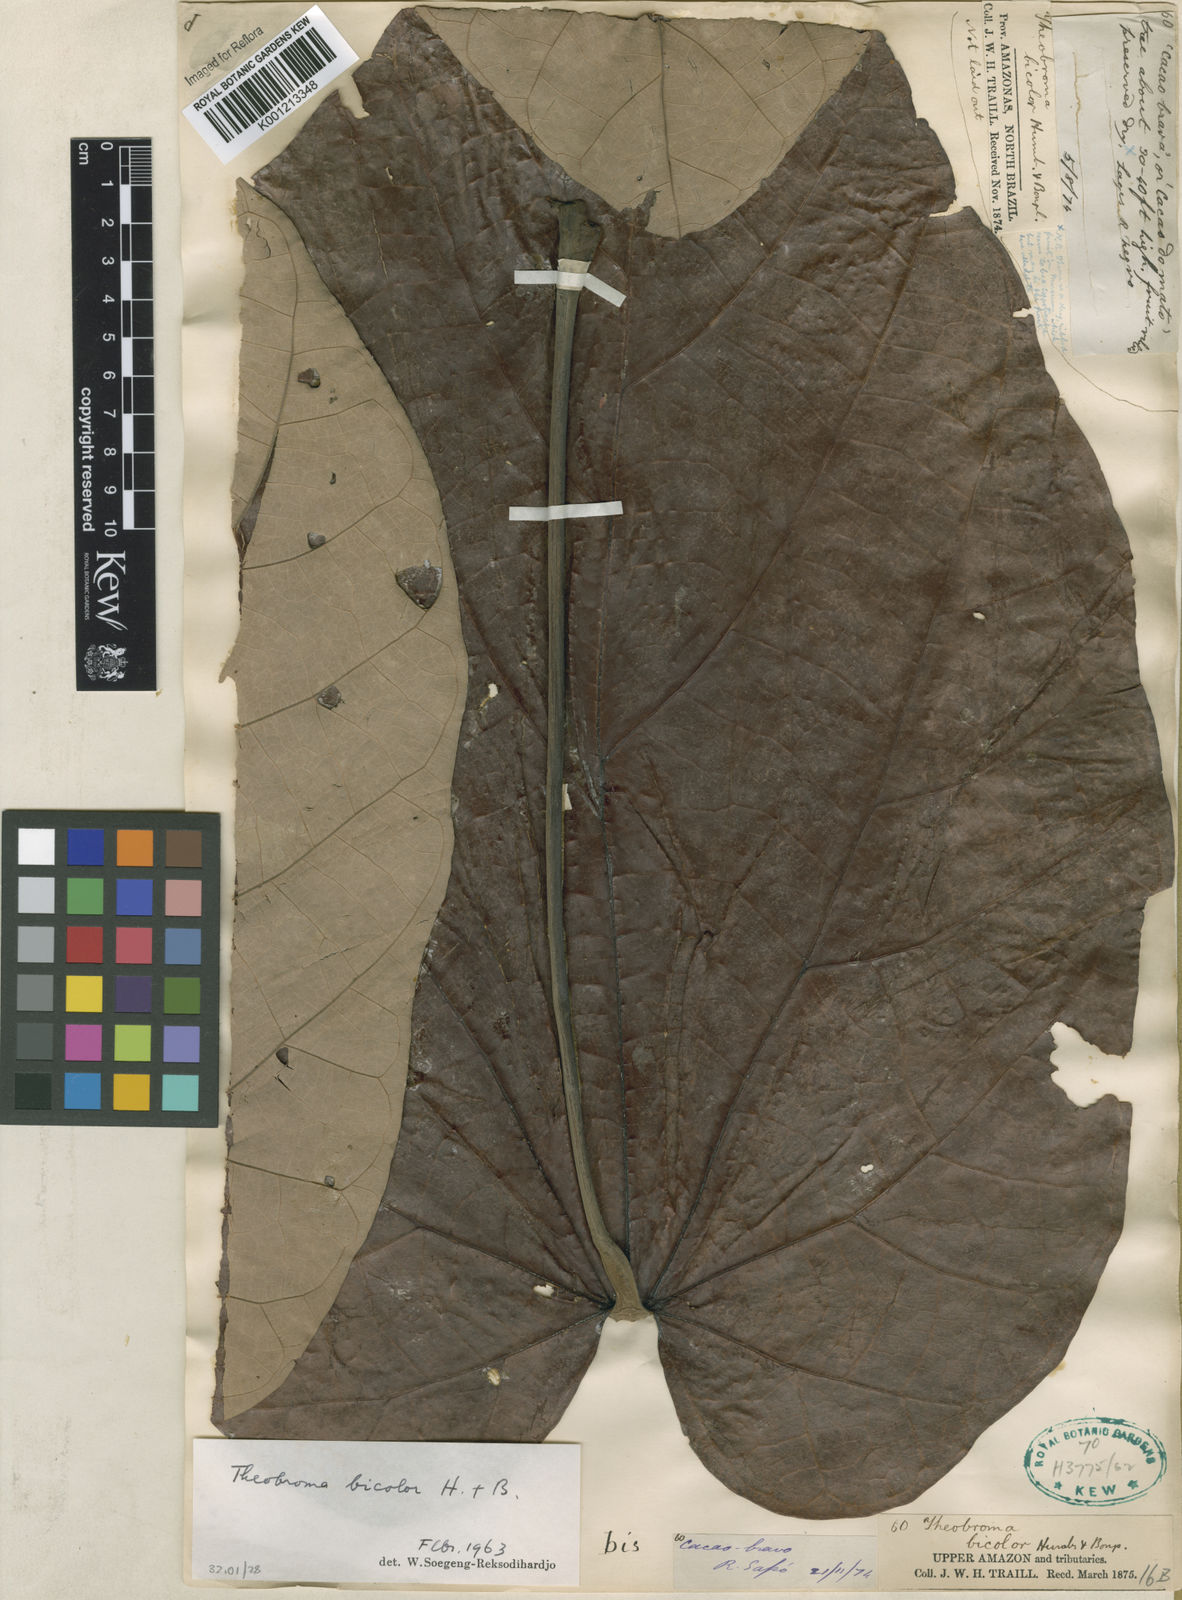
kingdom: Plantae
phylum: Tracheophyta
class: Magnoliopsida
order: Malvales
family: Malvaceae
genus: Theobroma
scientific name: Theobroma
